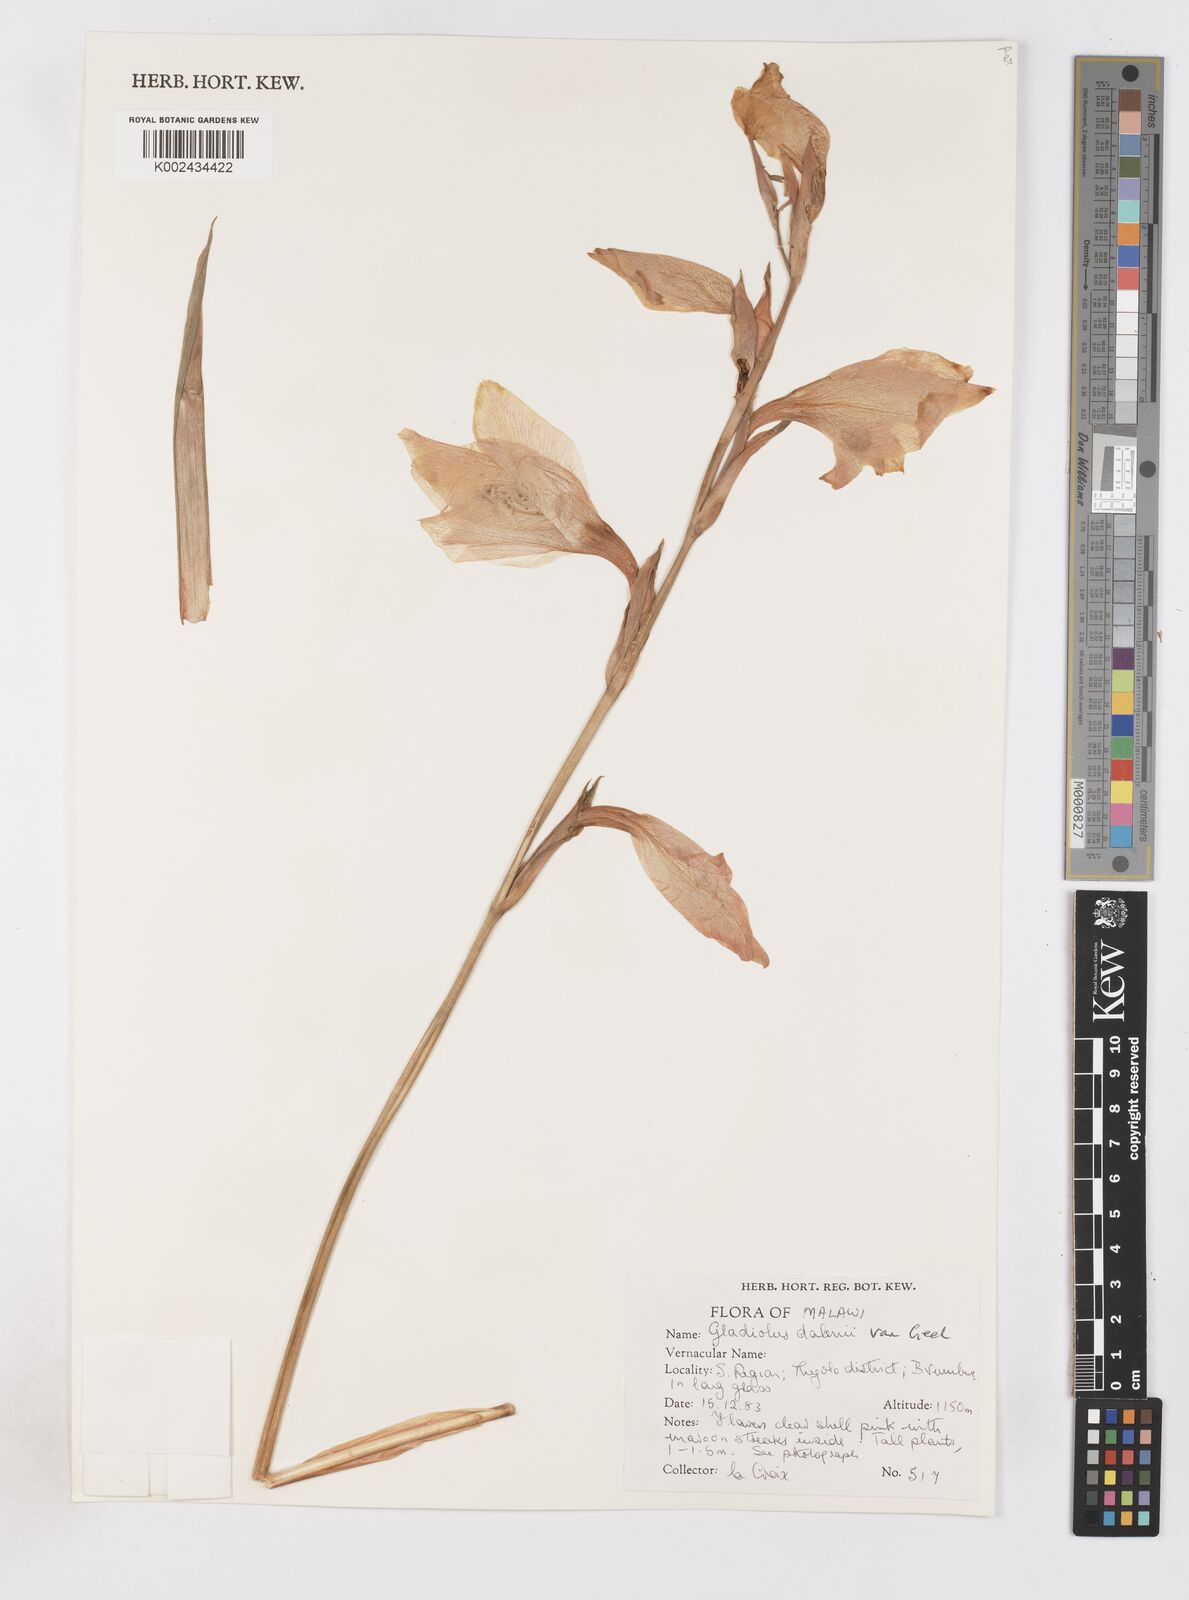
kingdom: Plantae
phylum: Tracheophyta
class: Liliopsida
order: Asparagales
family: Iridaceae
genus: Gladiolus
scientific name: Gladiolus dalenii
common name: Cornflag
